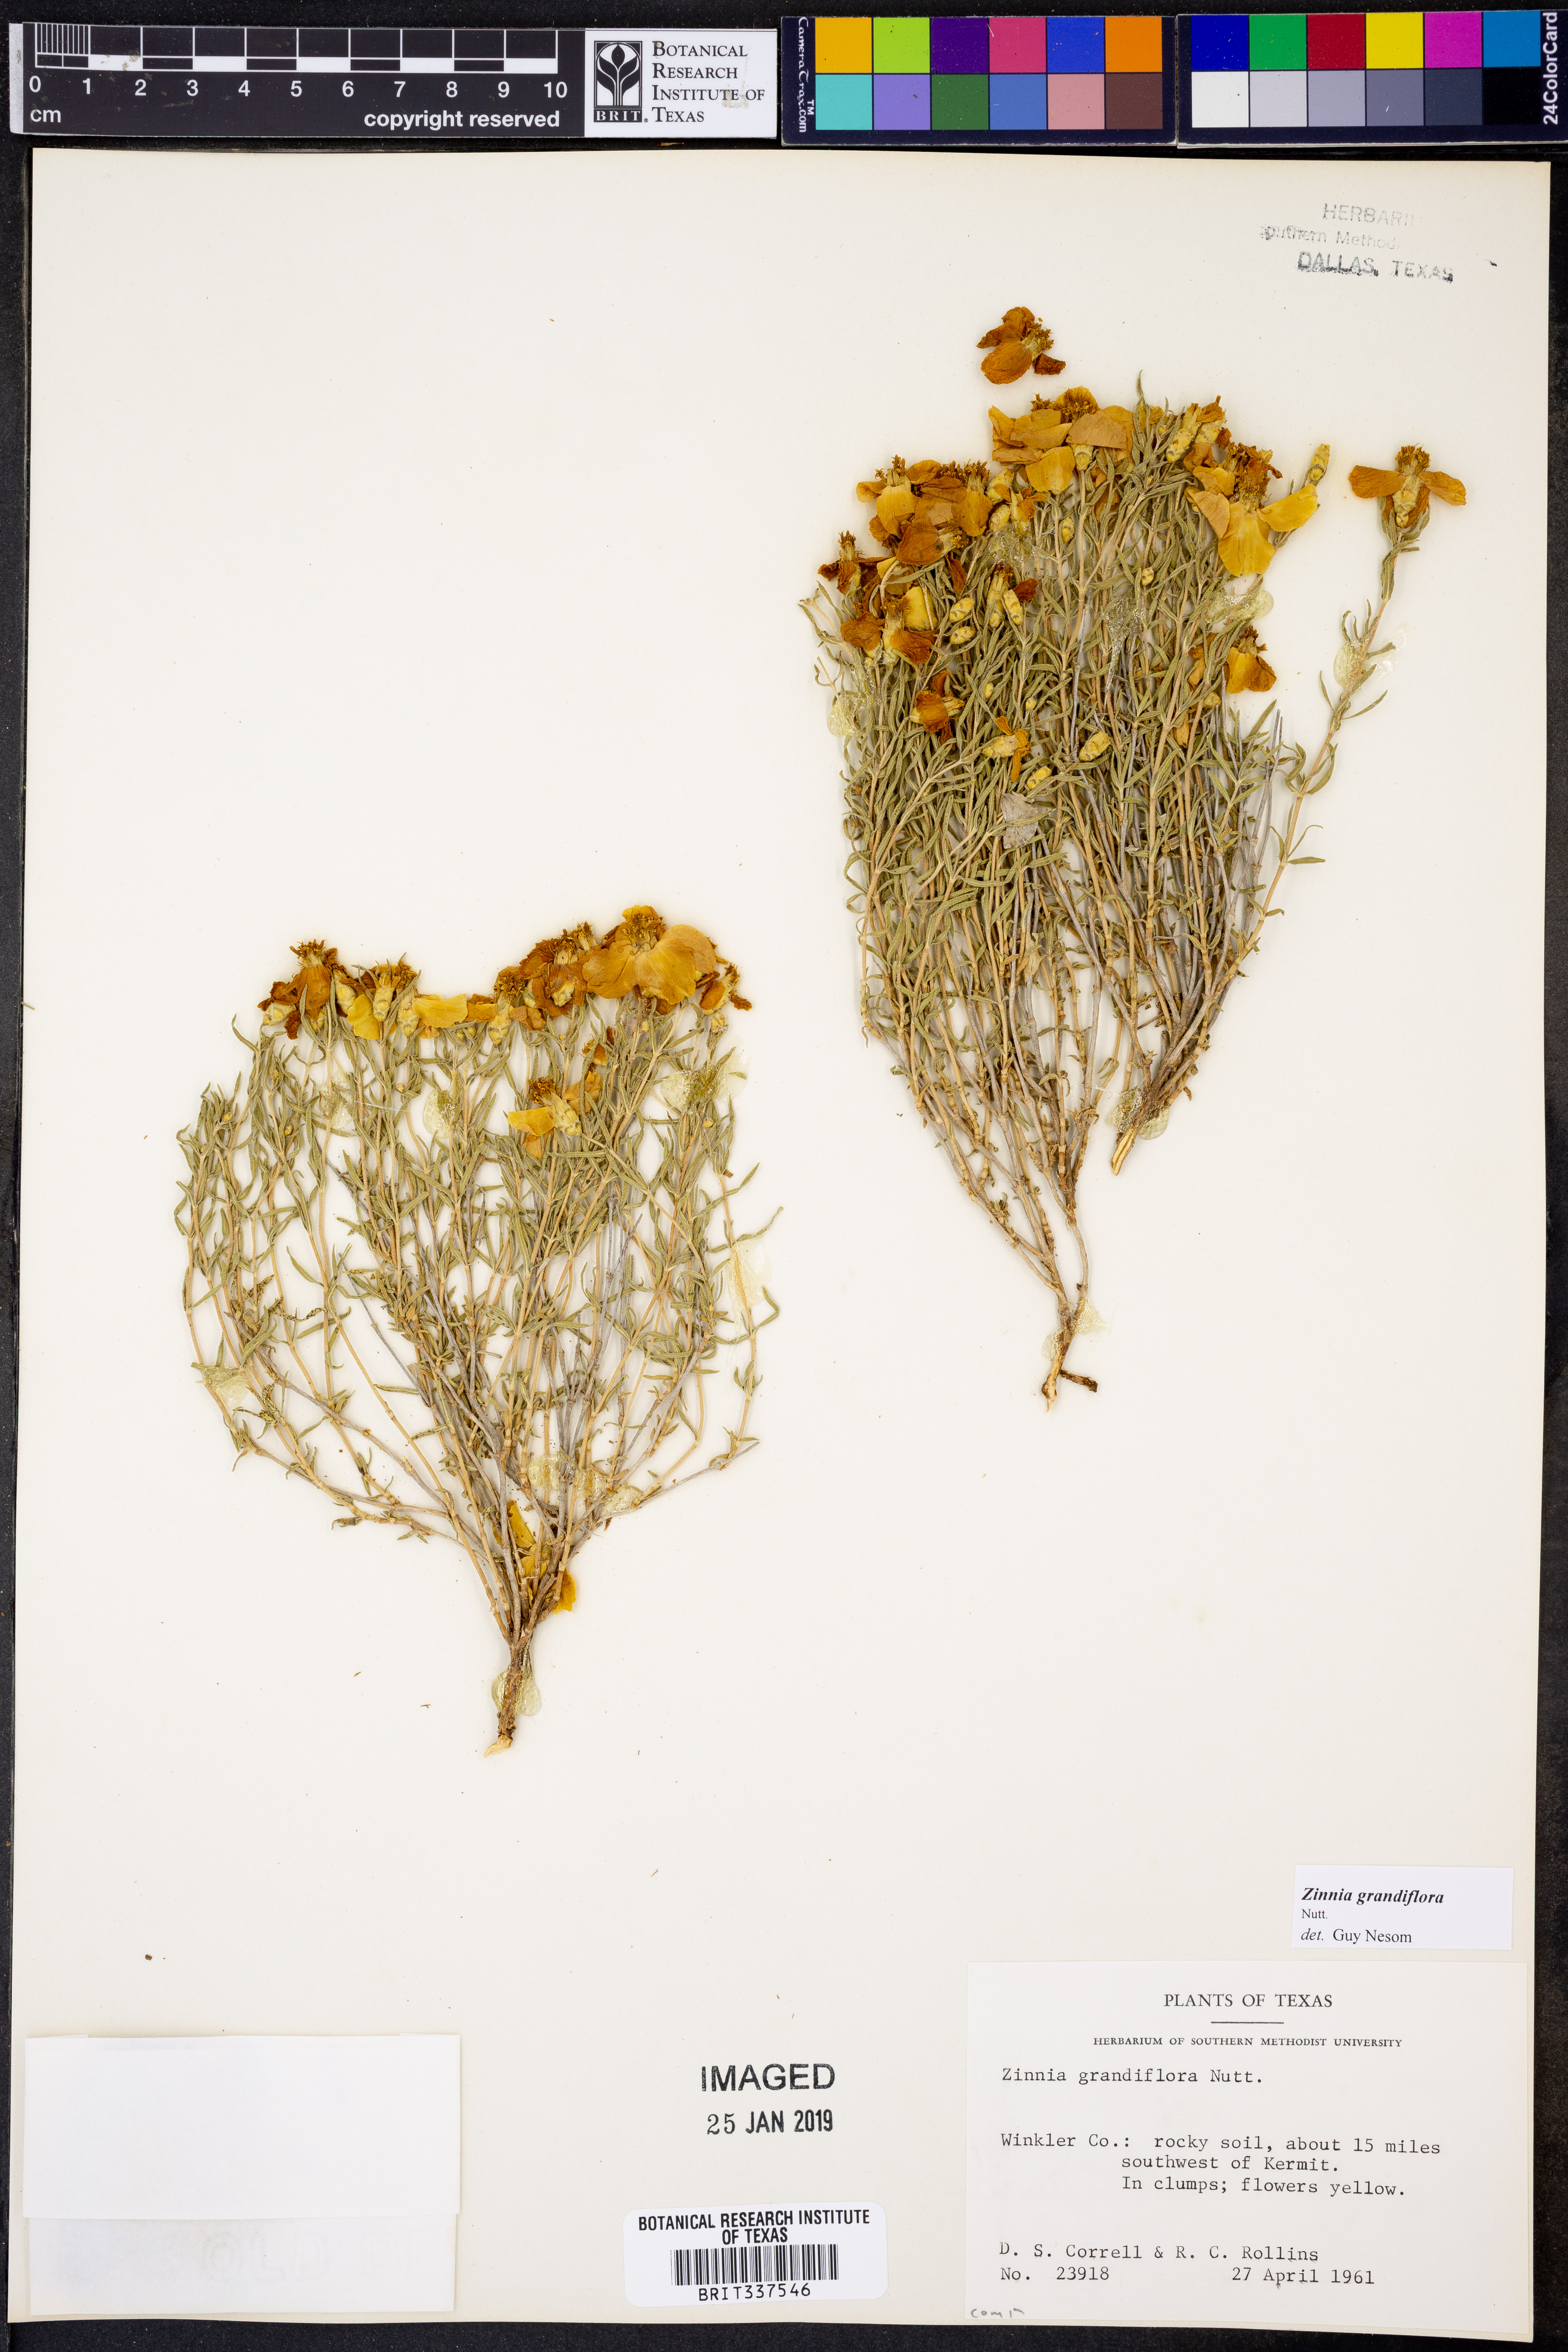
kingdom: Plantae
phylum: Tracheophyta
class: Magnoliopsida
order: Asterales
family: Asteraceae
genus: Zinnia
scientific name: Zinnia grandiflora
